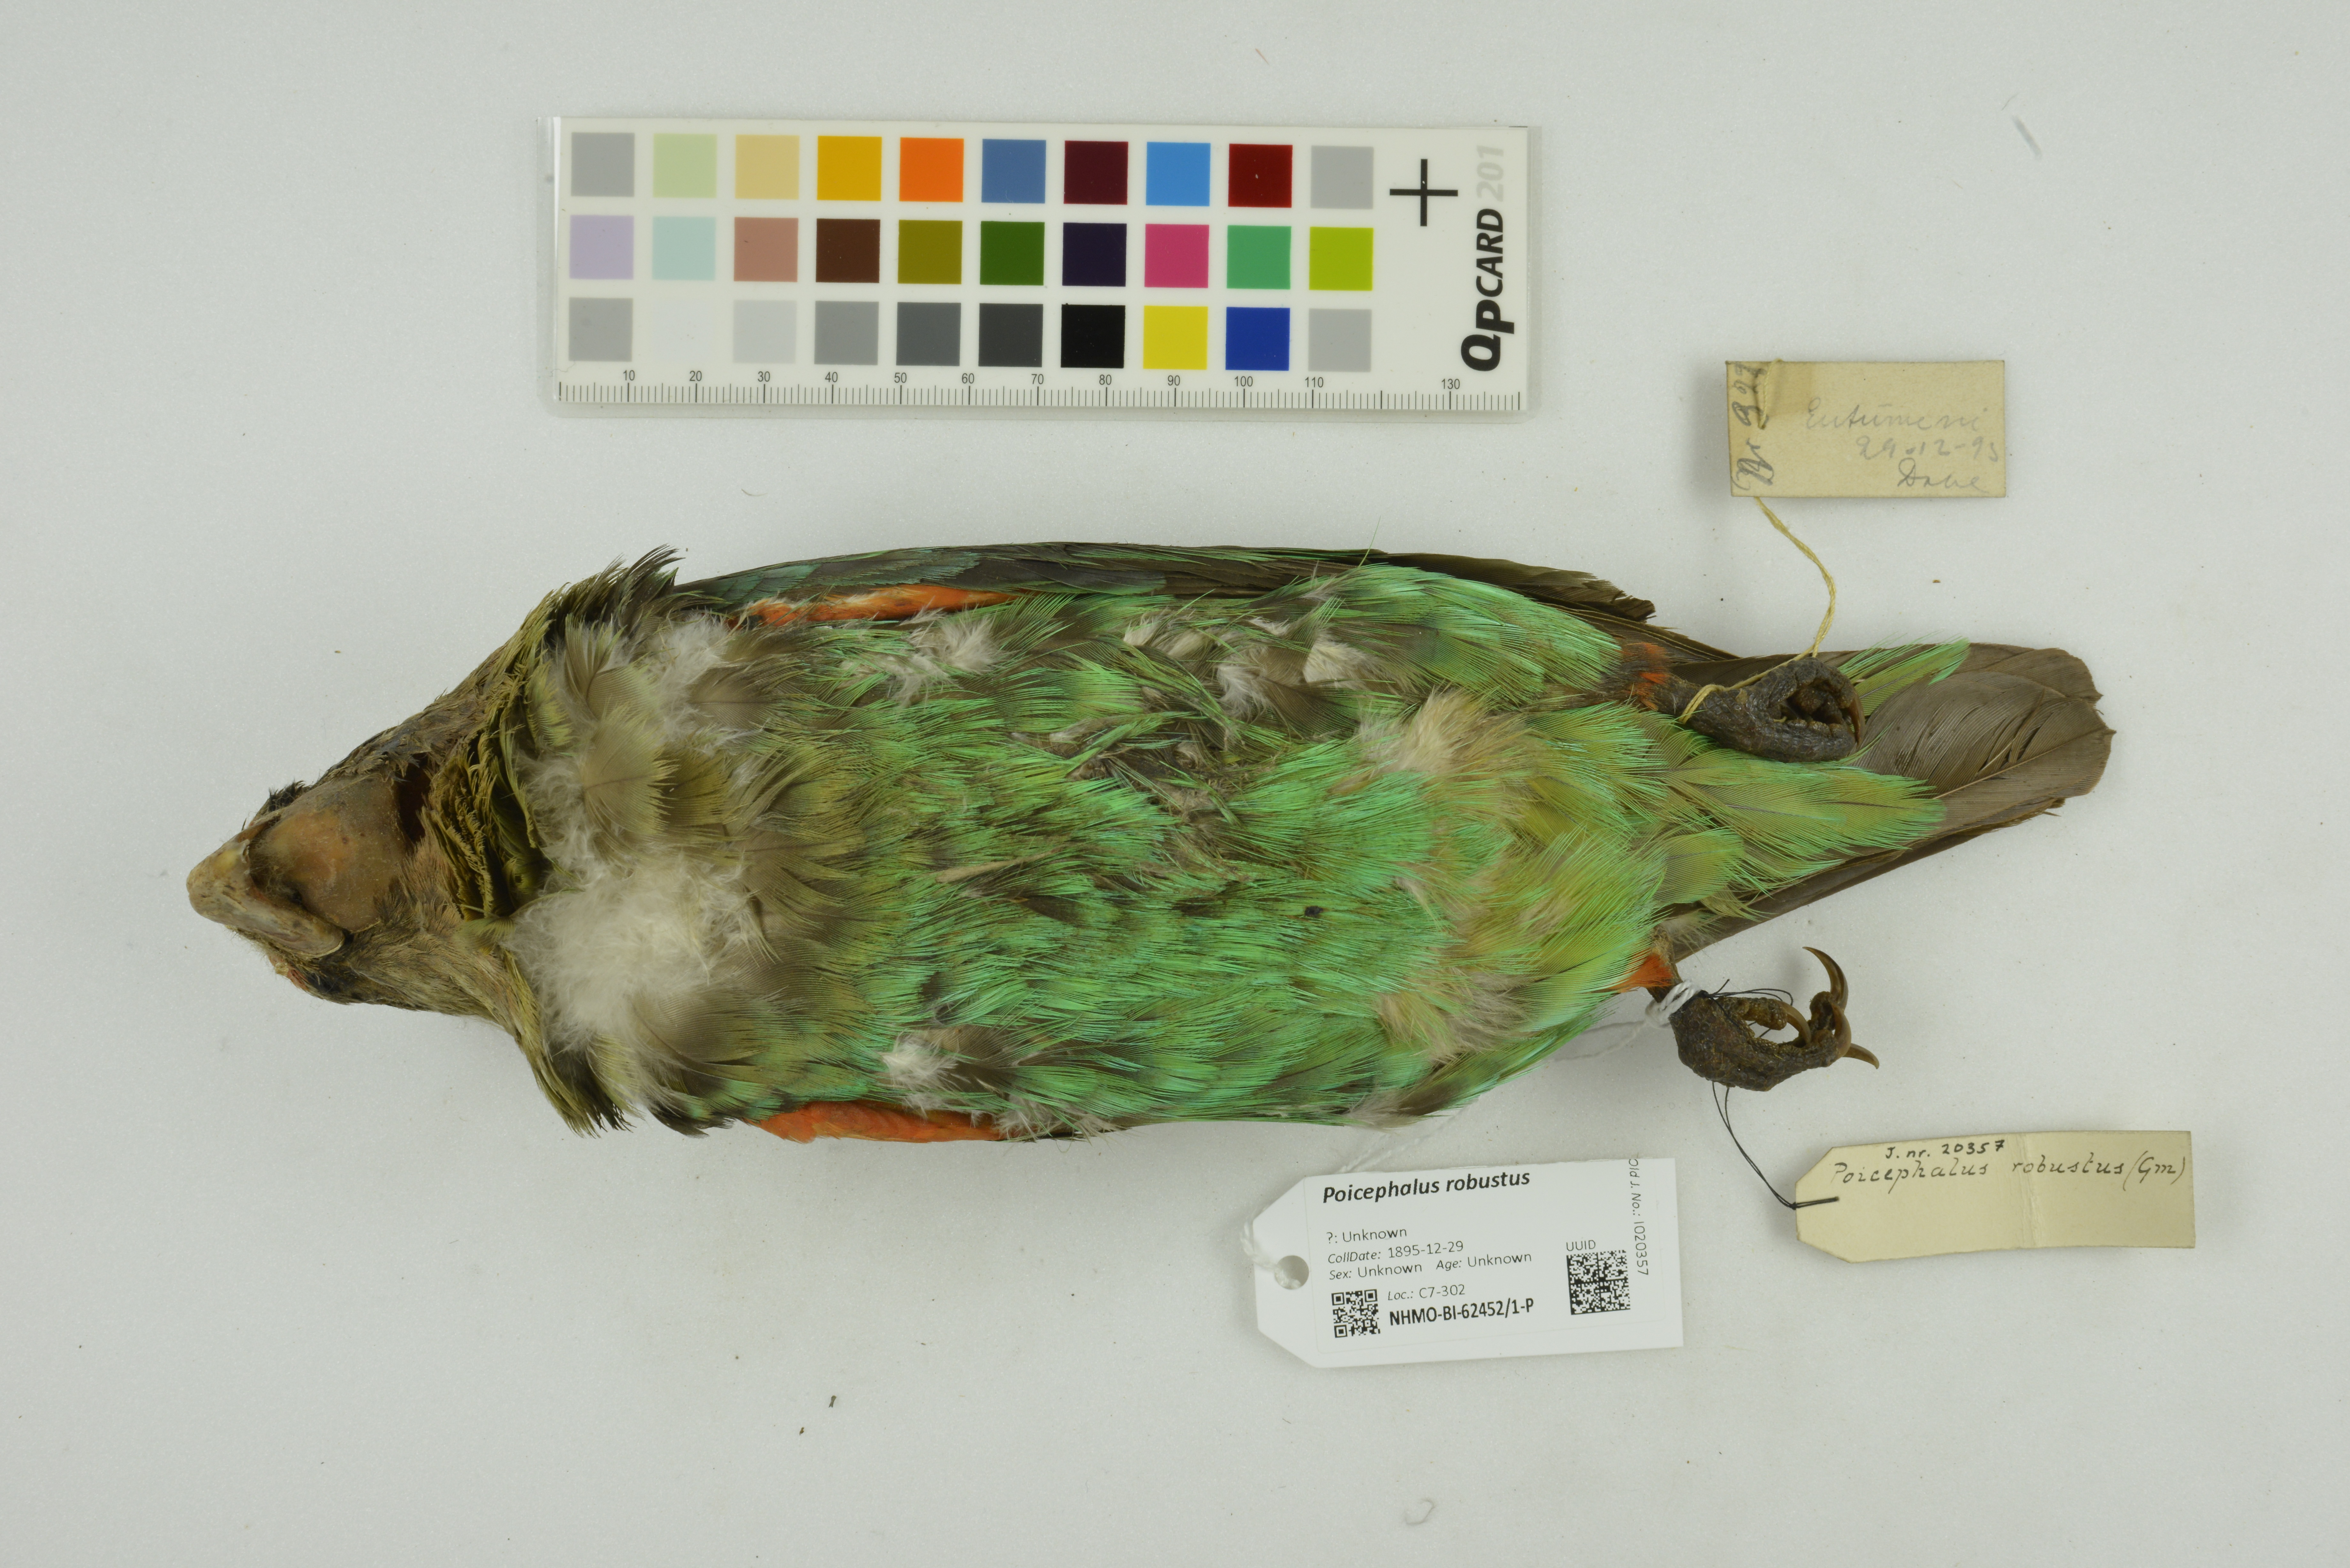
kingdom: Animalia
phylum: Chordata
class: Aves
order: Psittaciformes
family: Psittacidae
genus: Poicephalus
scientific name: Poicephalus robustus
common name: Cape parrot
